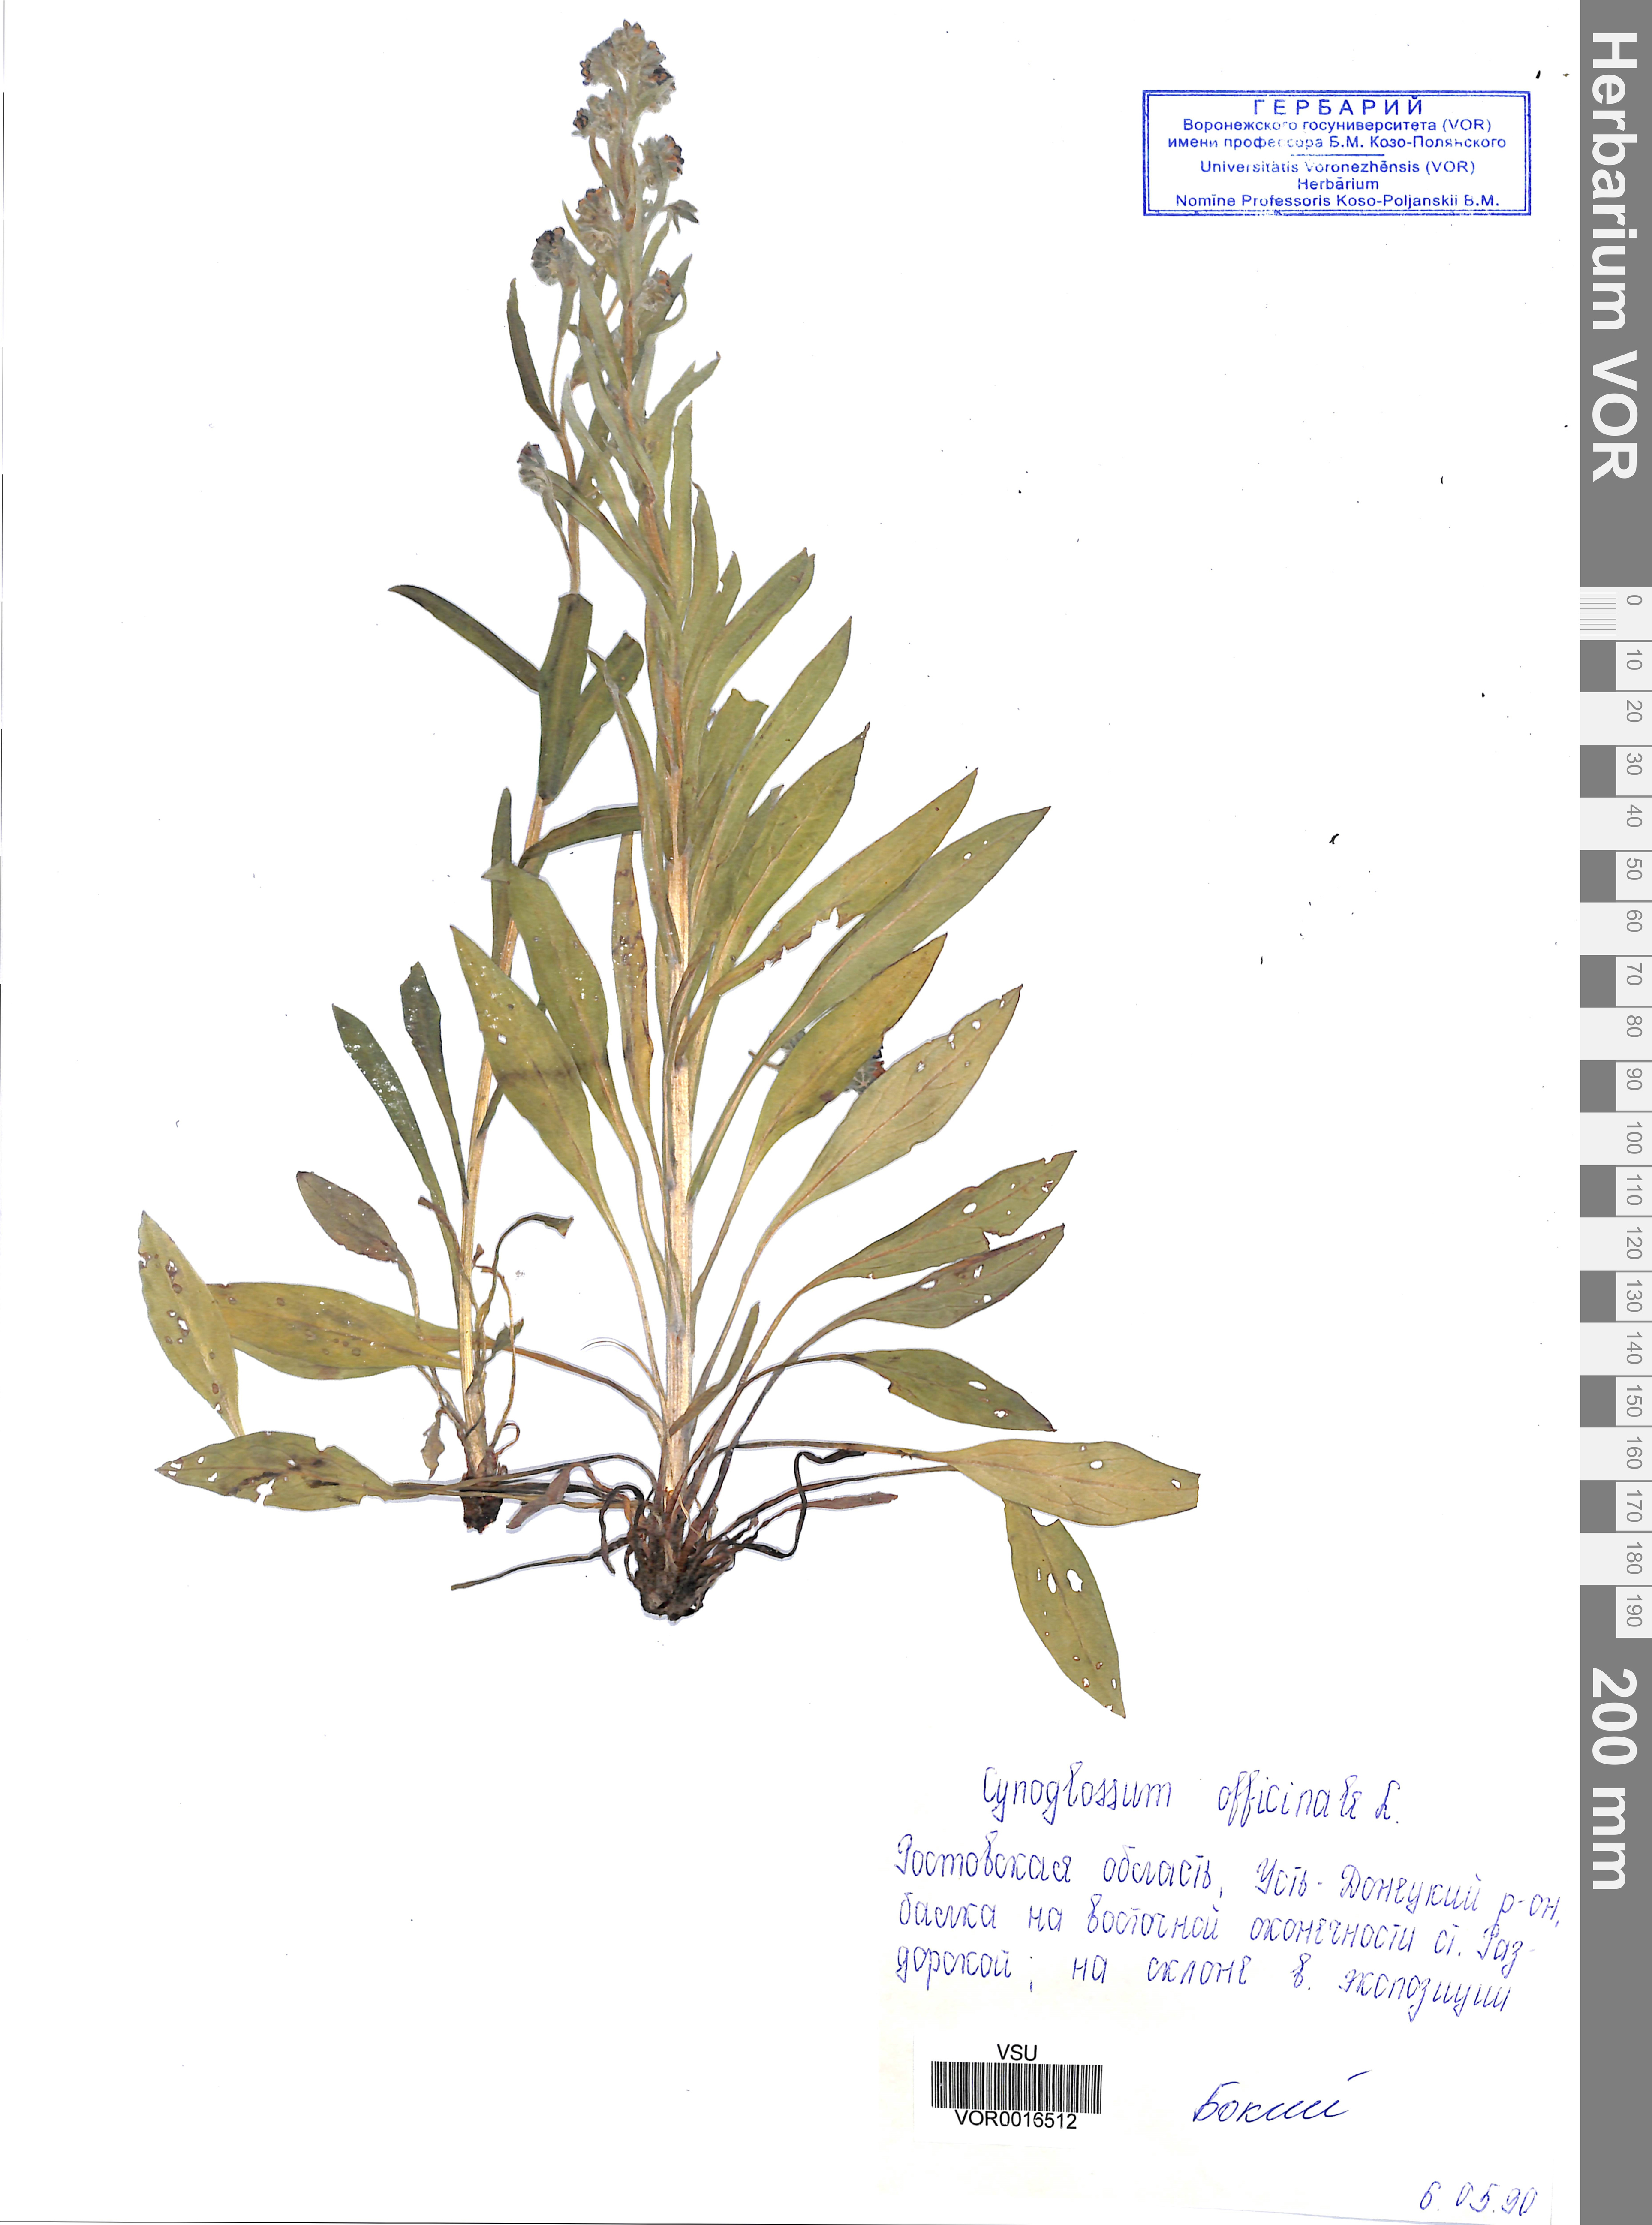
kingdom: Plantae
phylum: Tracheophyta
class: Magnoliopsida
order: Boraginales
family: Boraginaceae
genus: Cynoglossum
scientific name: Cynoglossum officinale
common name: Hound's-tongue
